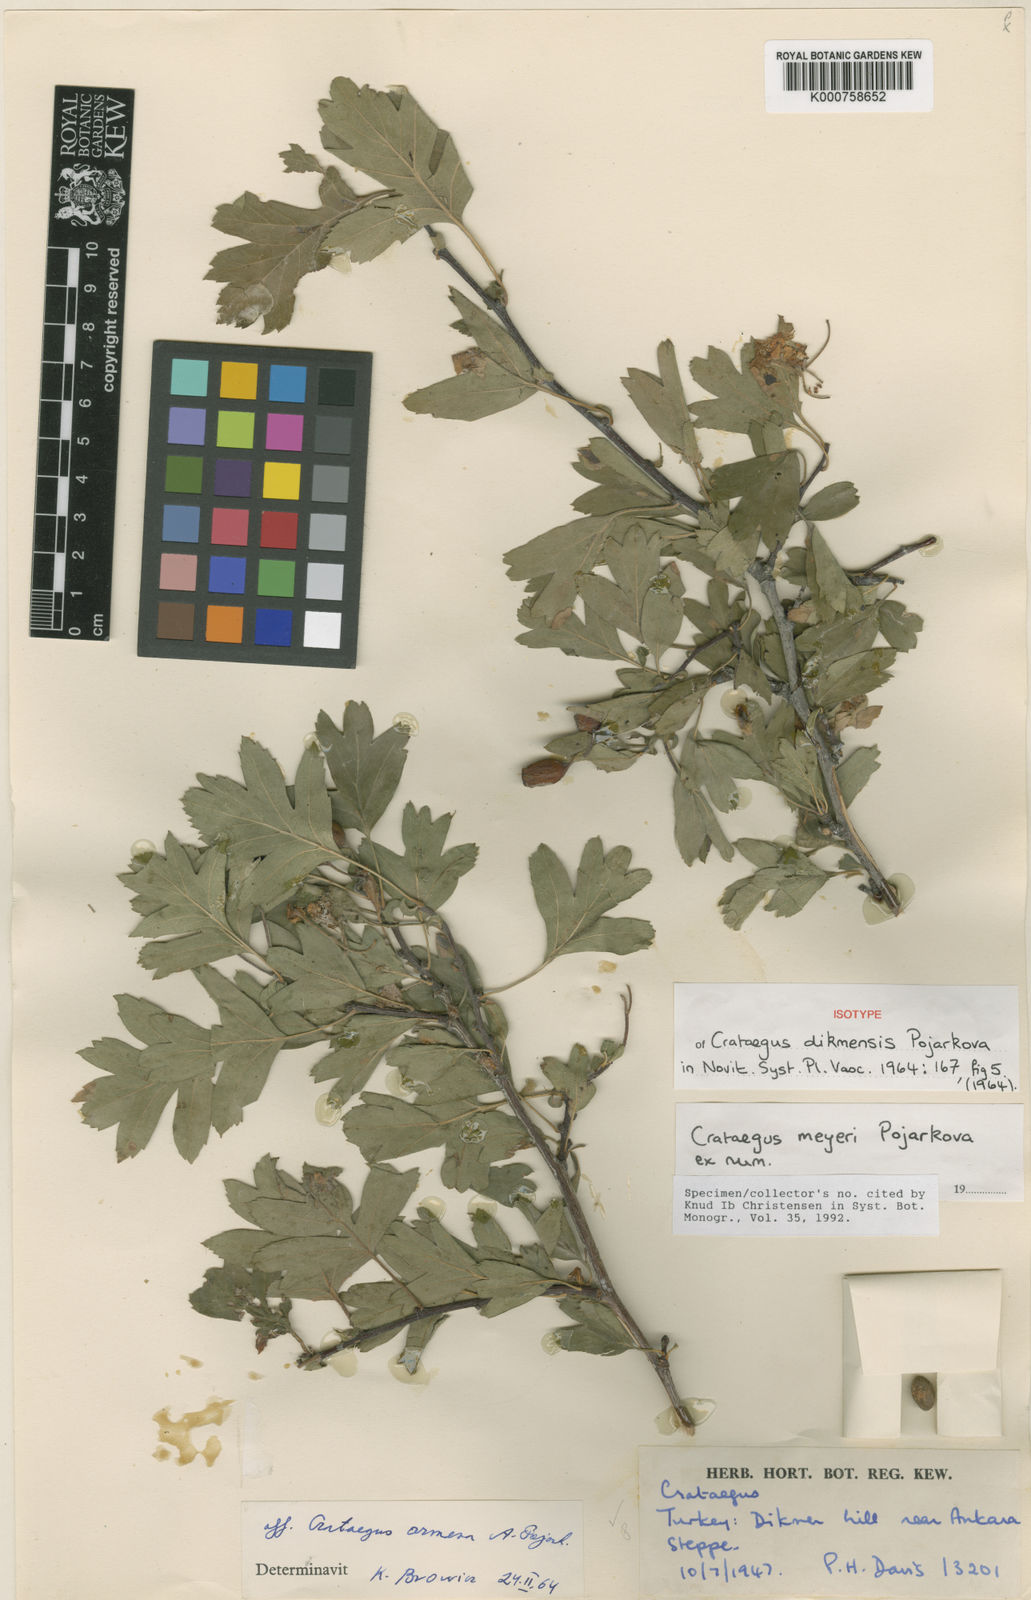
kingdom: Plantae
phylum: Tracheophyta
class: Magnoliopsida
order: Rosales
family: Rosaceae
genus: Crataegus
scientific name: Crataegus meyeri
